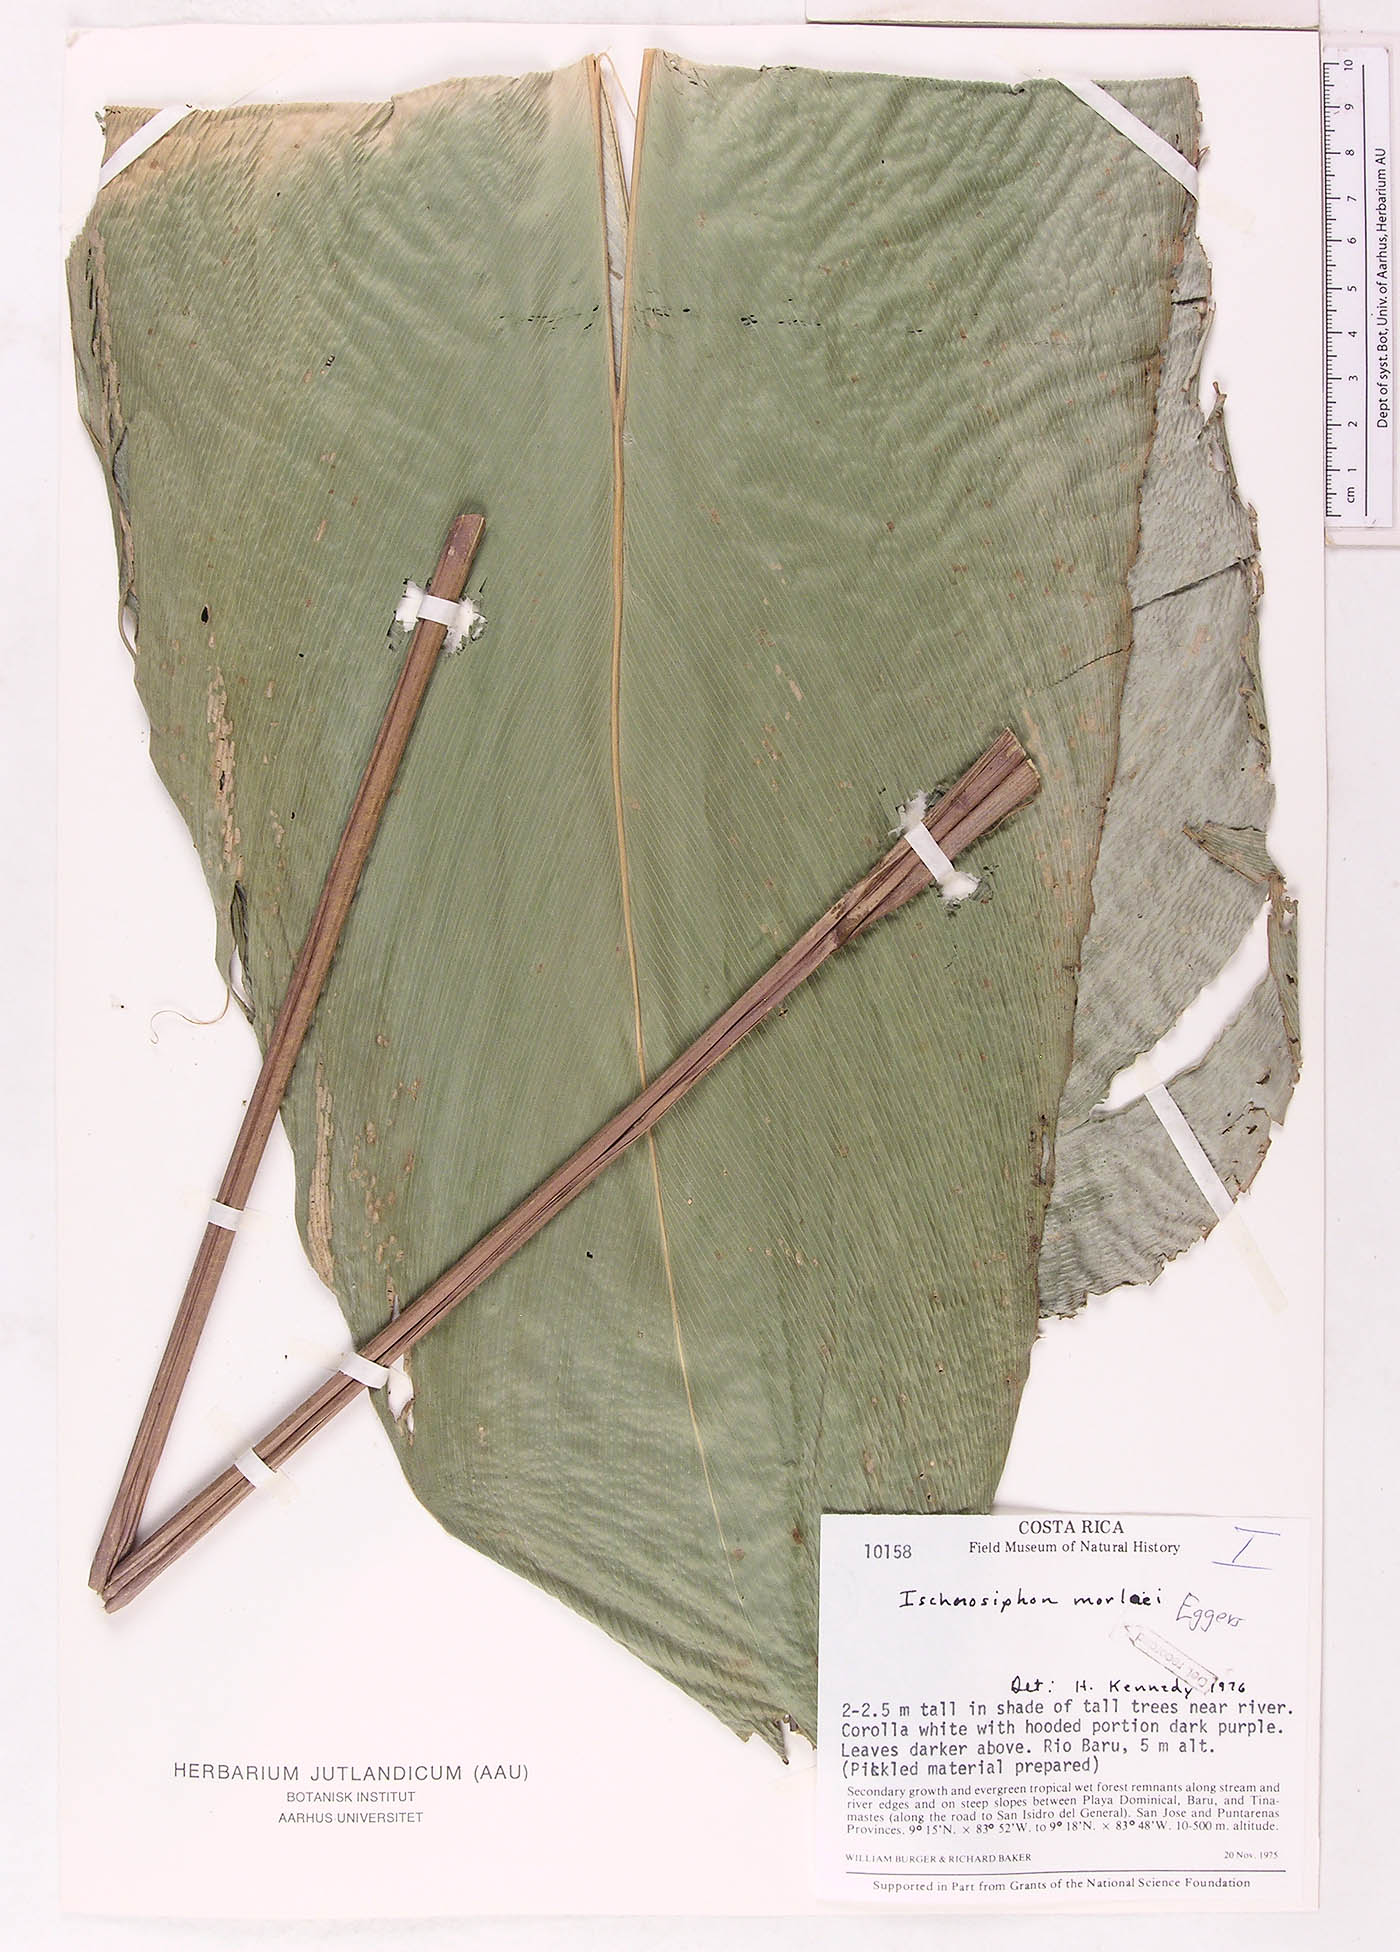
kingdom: Plantae
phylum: Tracheophyta
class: Liliopsida
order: Zingiberales
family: Marantaceae
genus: Pleiostachya
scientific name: Pleiostachya pruinosa
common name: Prayer plant
